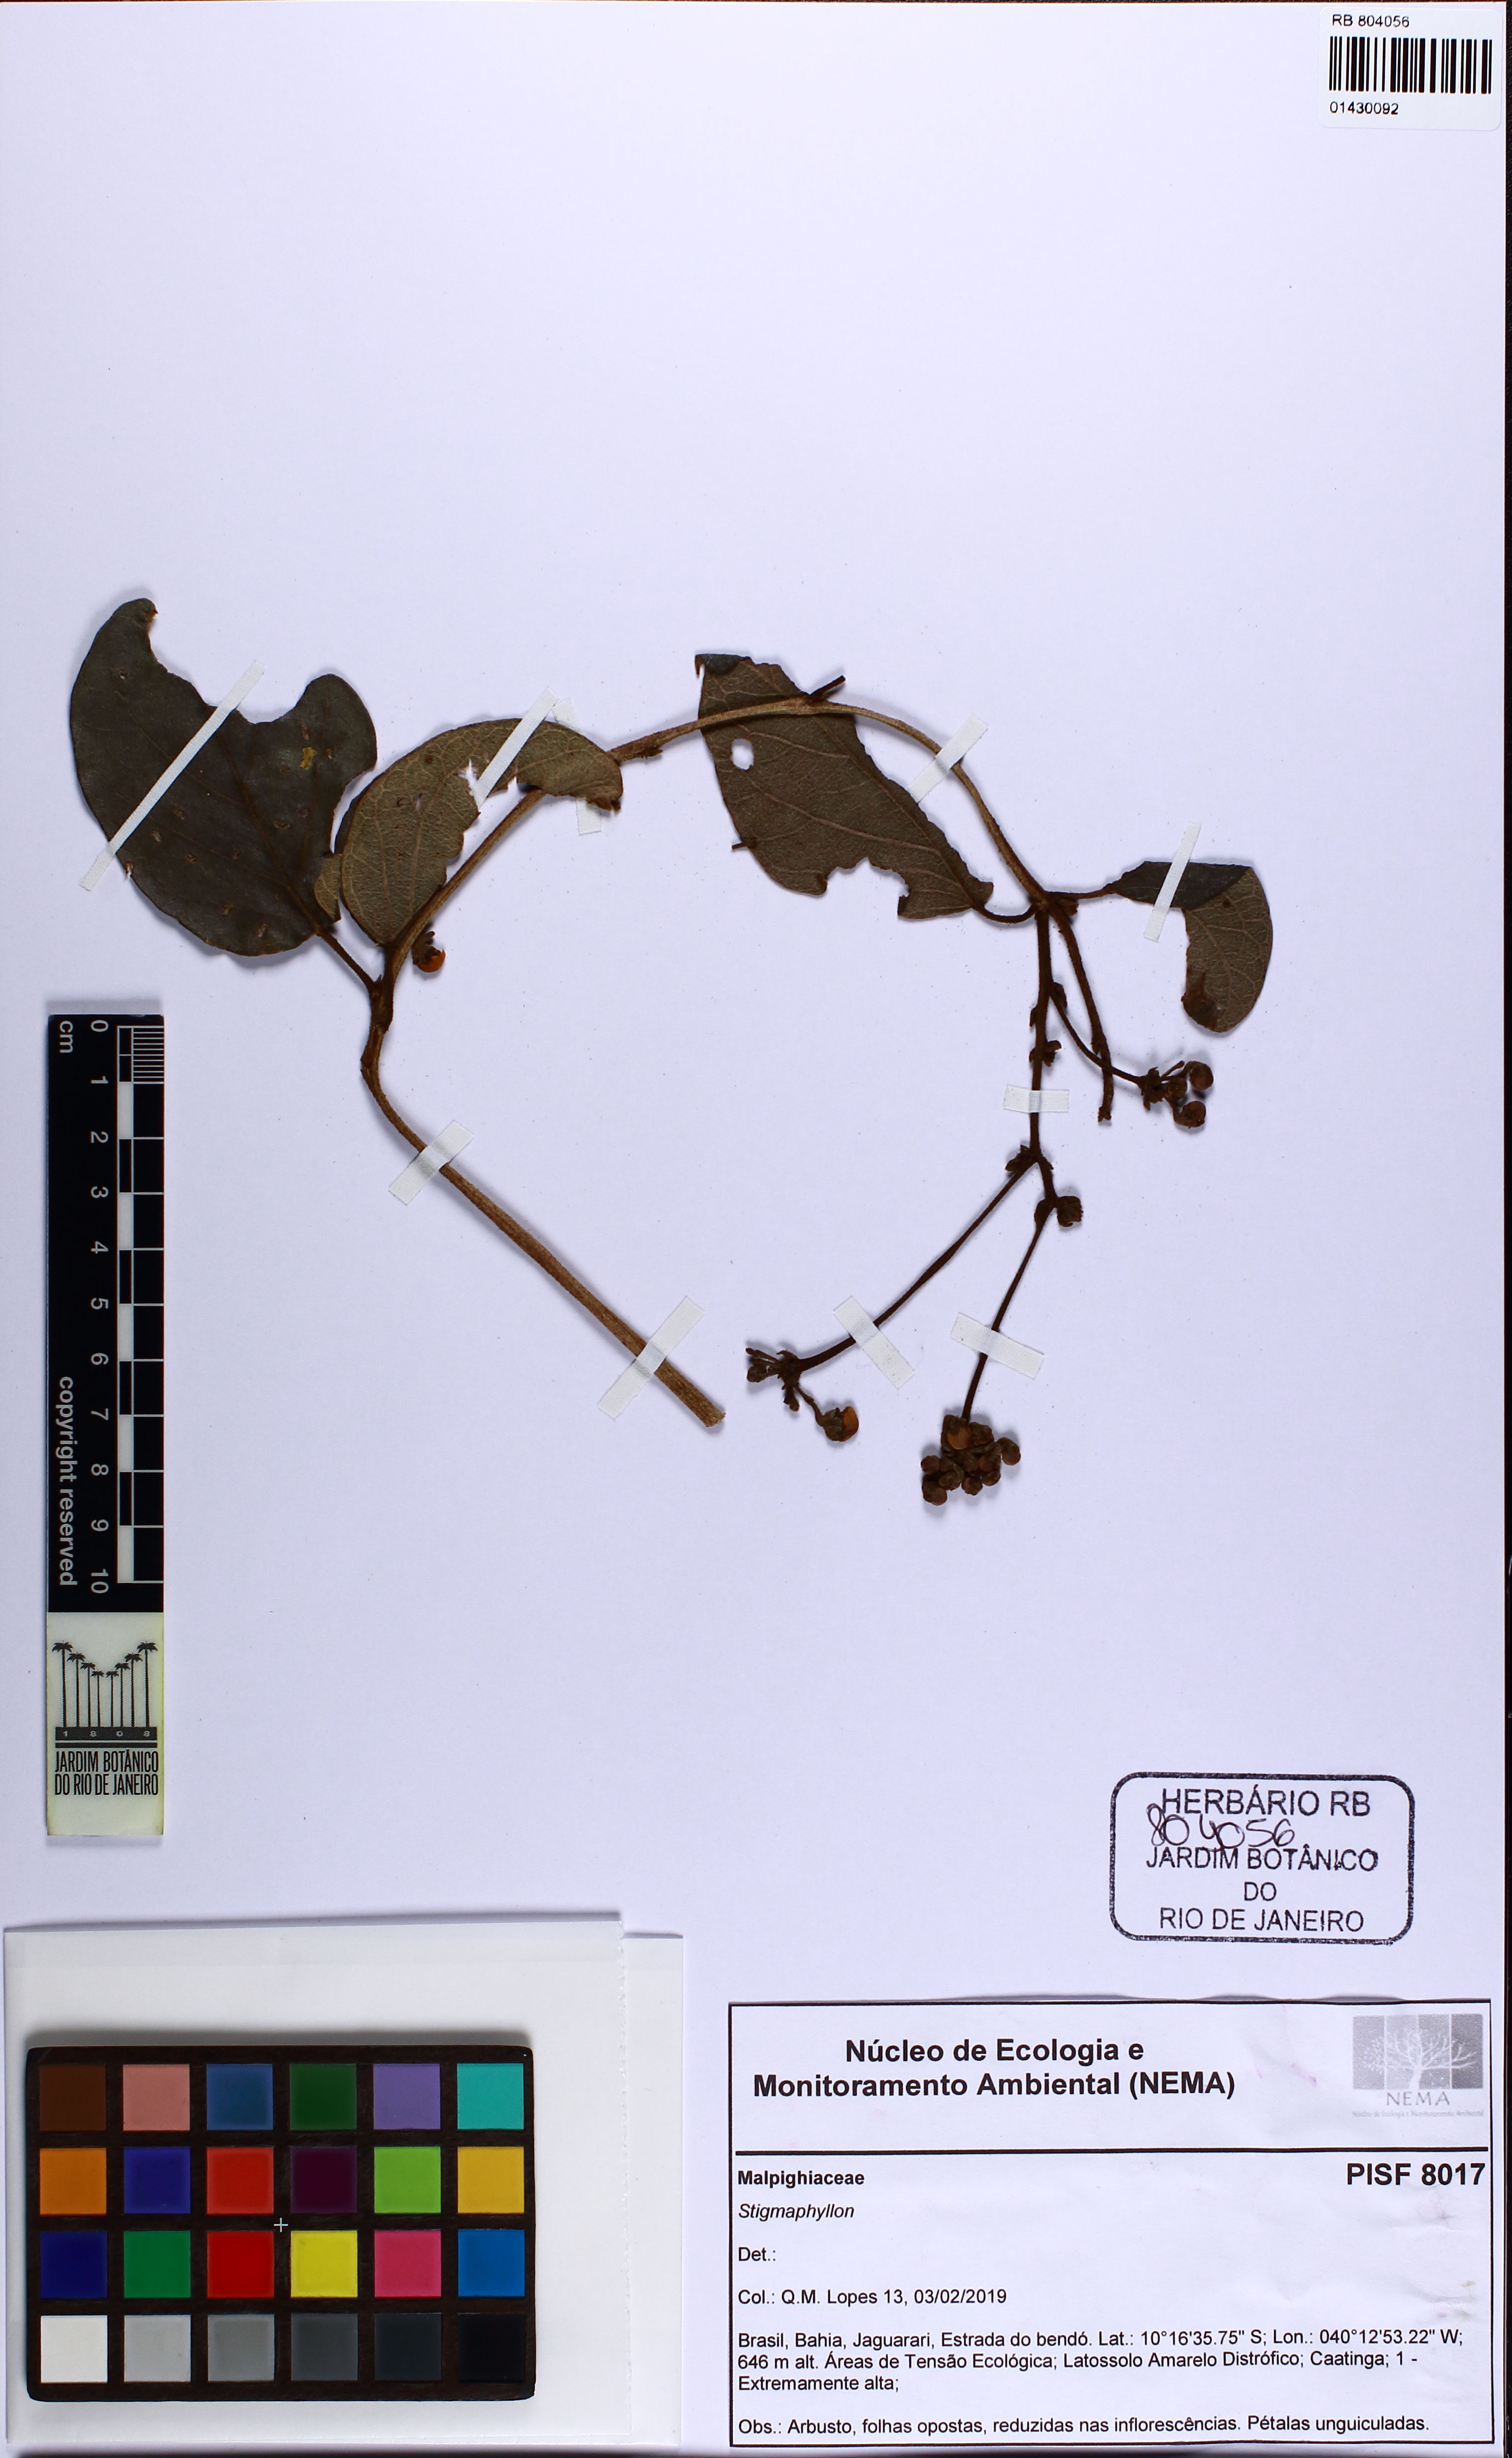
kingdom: Plantae
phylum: Tracheophyta
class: Magnoliopsida
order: Malpighiales
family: Malpighiaceae
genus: Stigmaphyllon
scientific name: Stigmaphyllon
